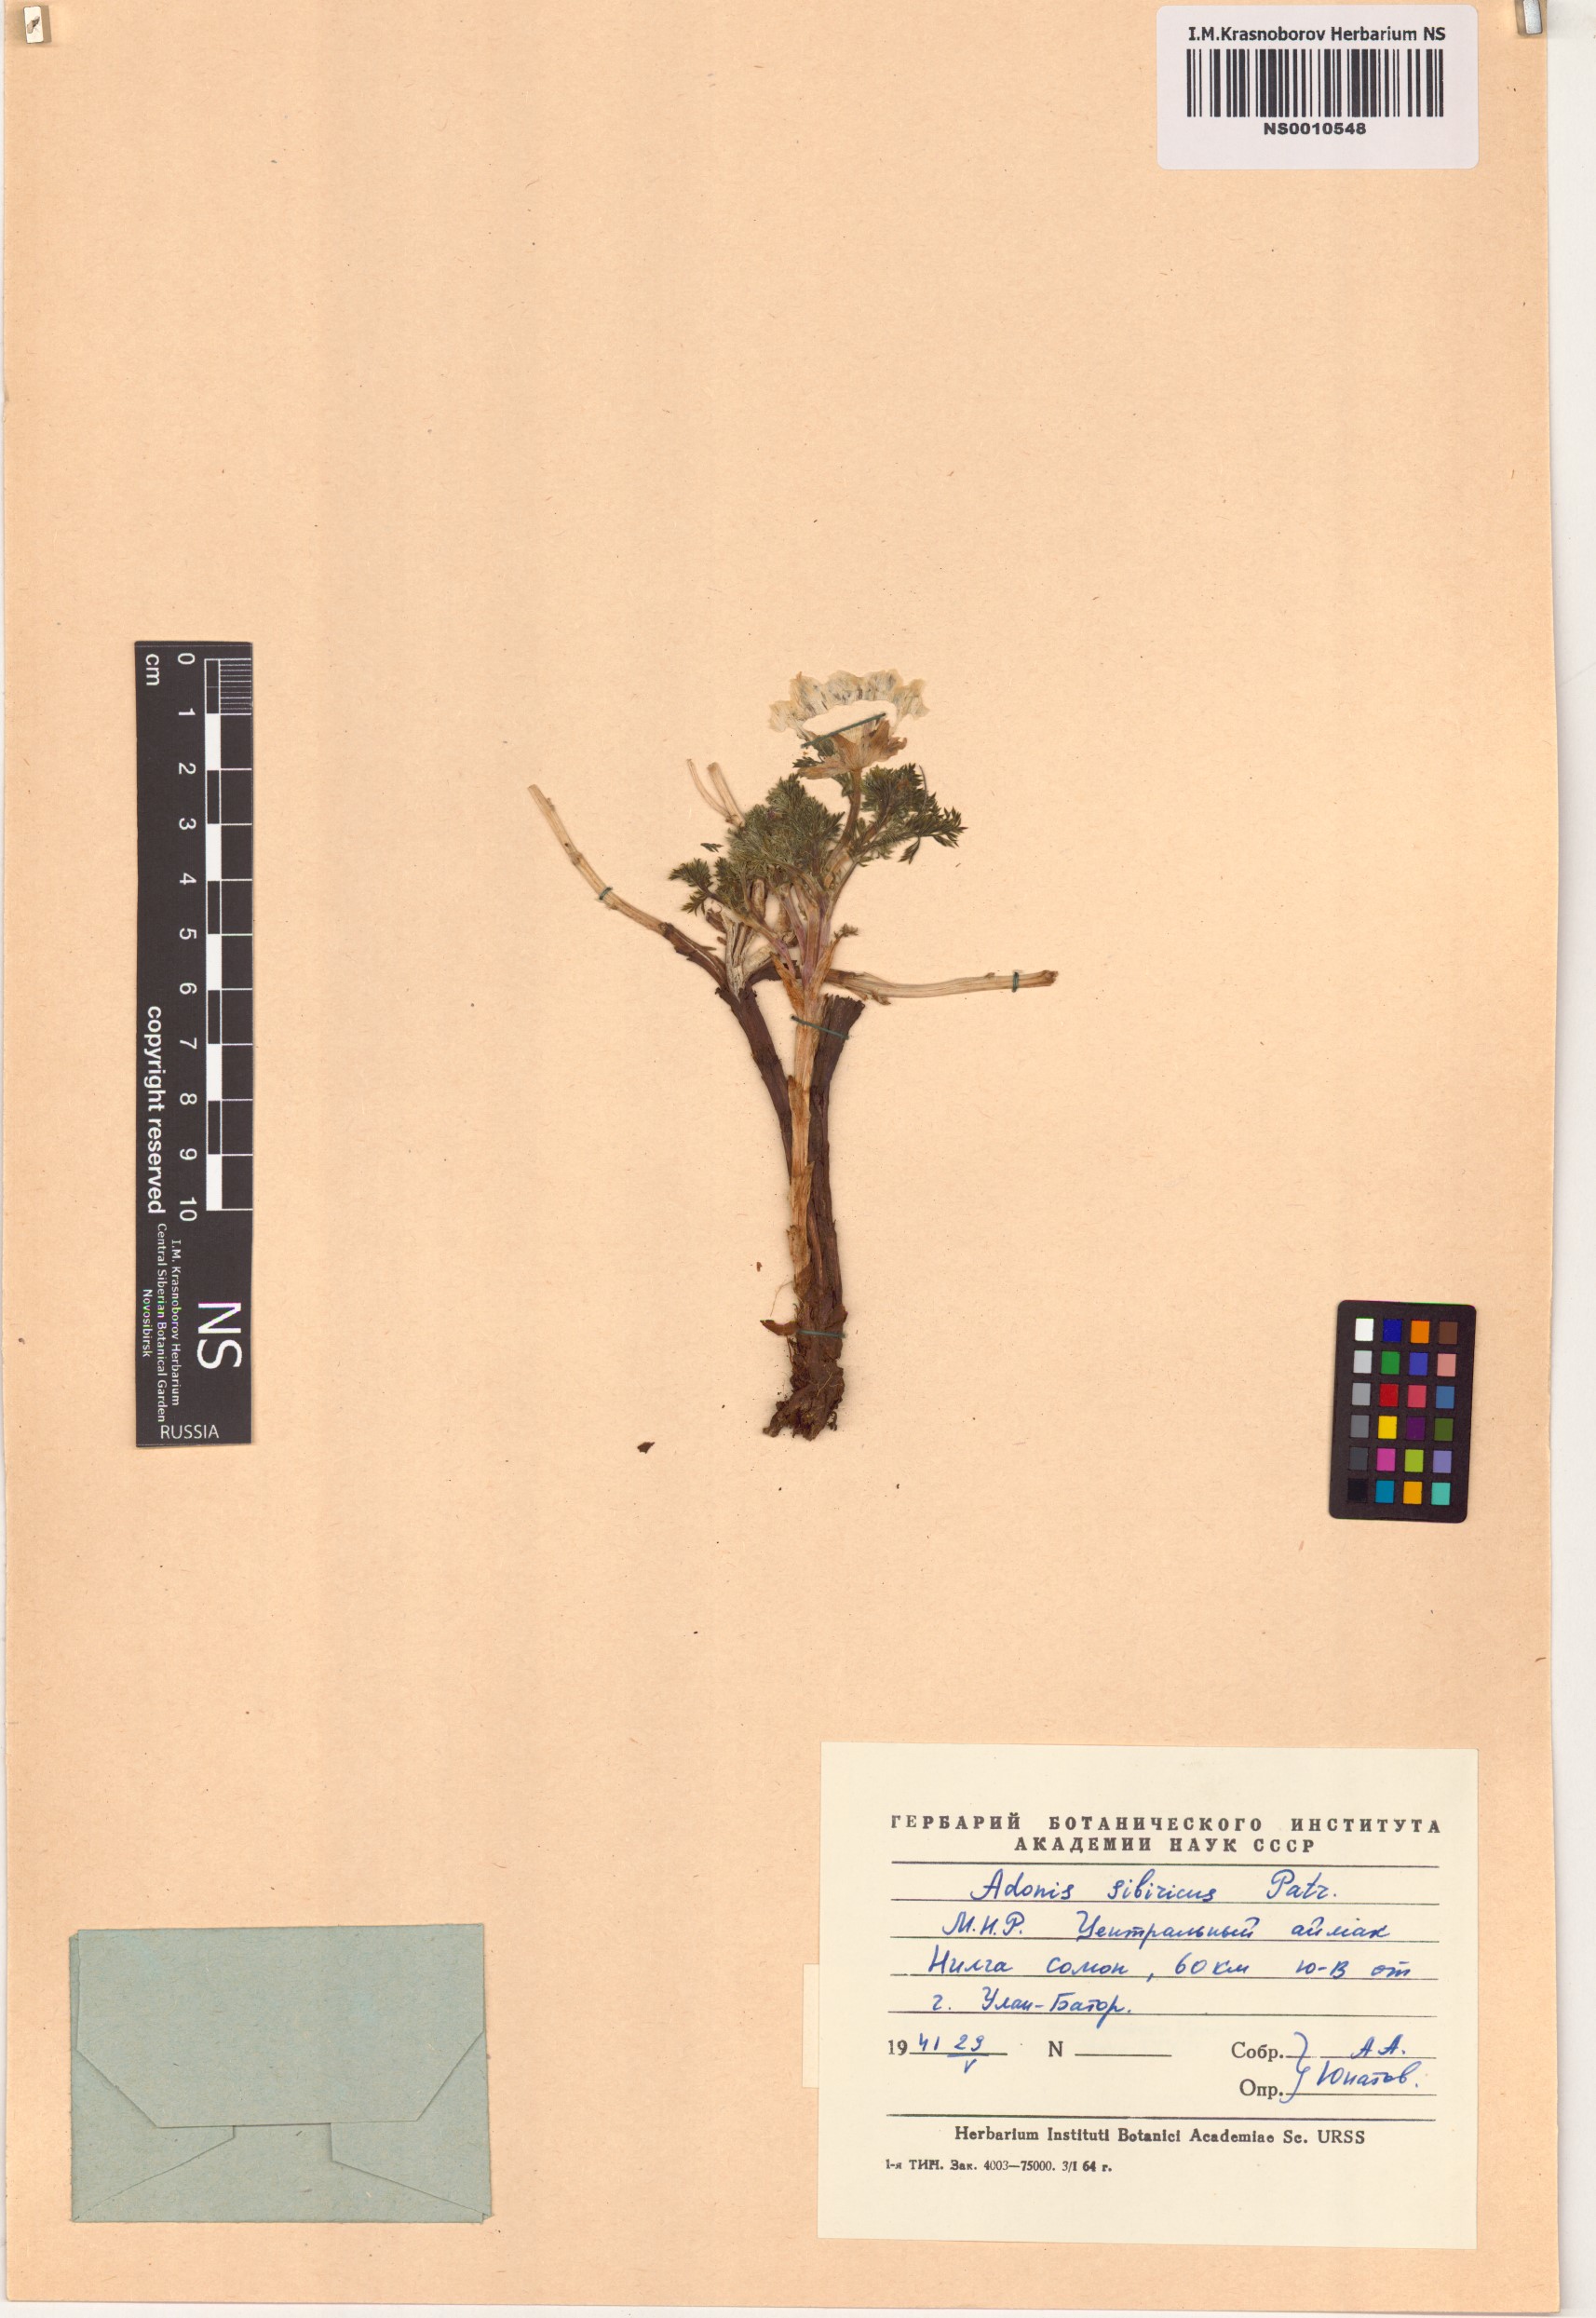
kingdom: Plantae
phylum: Tracheophyta
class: Magnoliopsida
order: Ranunculales
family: Ranunculaceae
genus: Adonis
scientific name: Adonis sibirica
